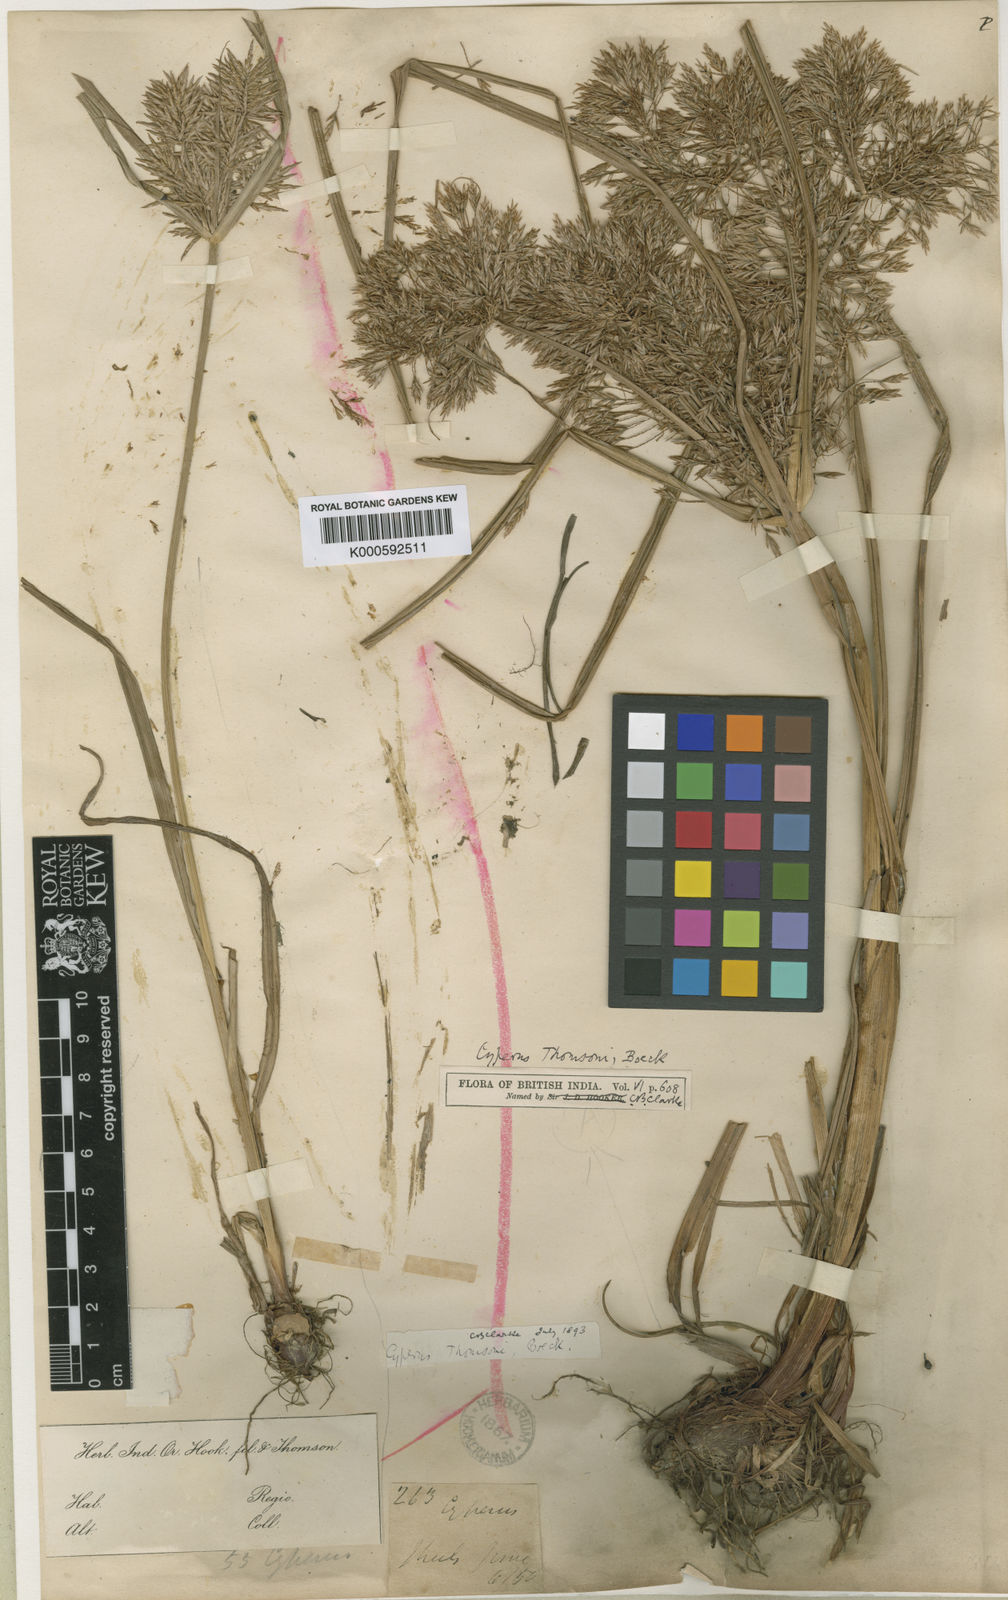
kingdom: Plantae
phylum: Tracheophyta
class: Liliopsida
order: Poales
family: Cyperaceae
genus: Cyperus
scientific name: Cyperus thomsonii
